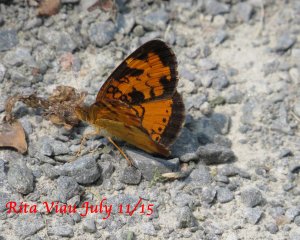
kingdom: Animalia
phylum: Arthropoda
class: Insecta
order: Lepidoptera
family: Nymphalidae
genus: Phyciodes
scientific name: Phyciodes tharos
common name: Northern Crescent
